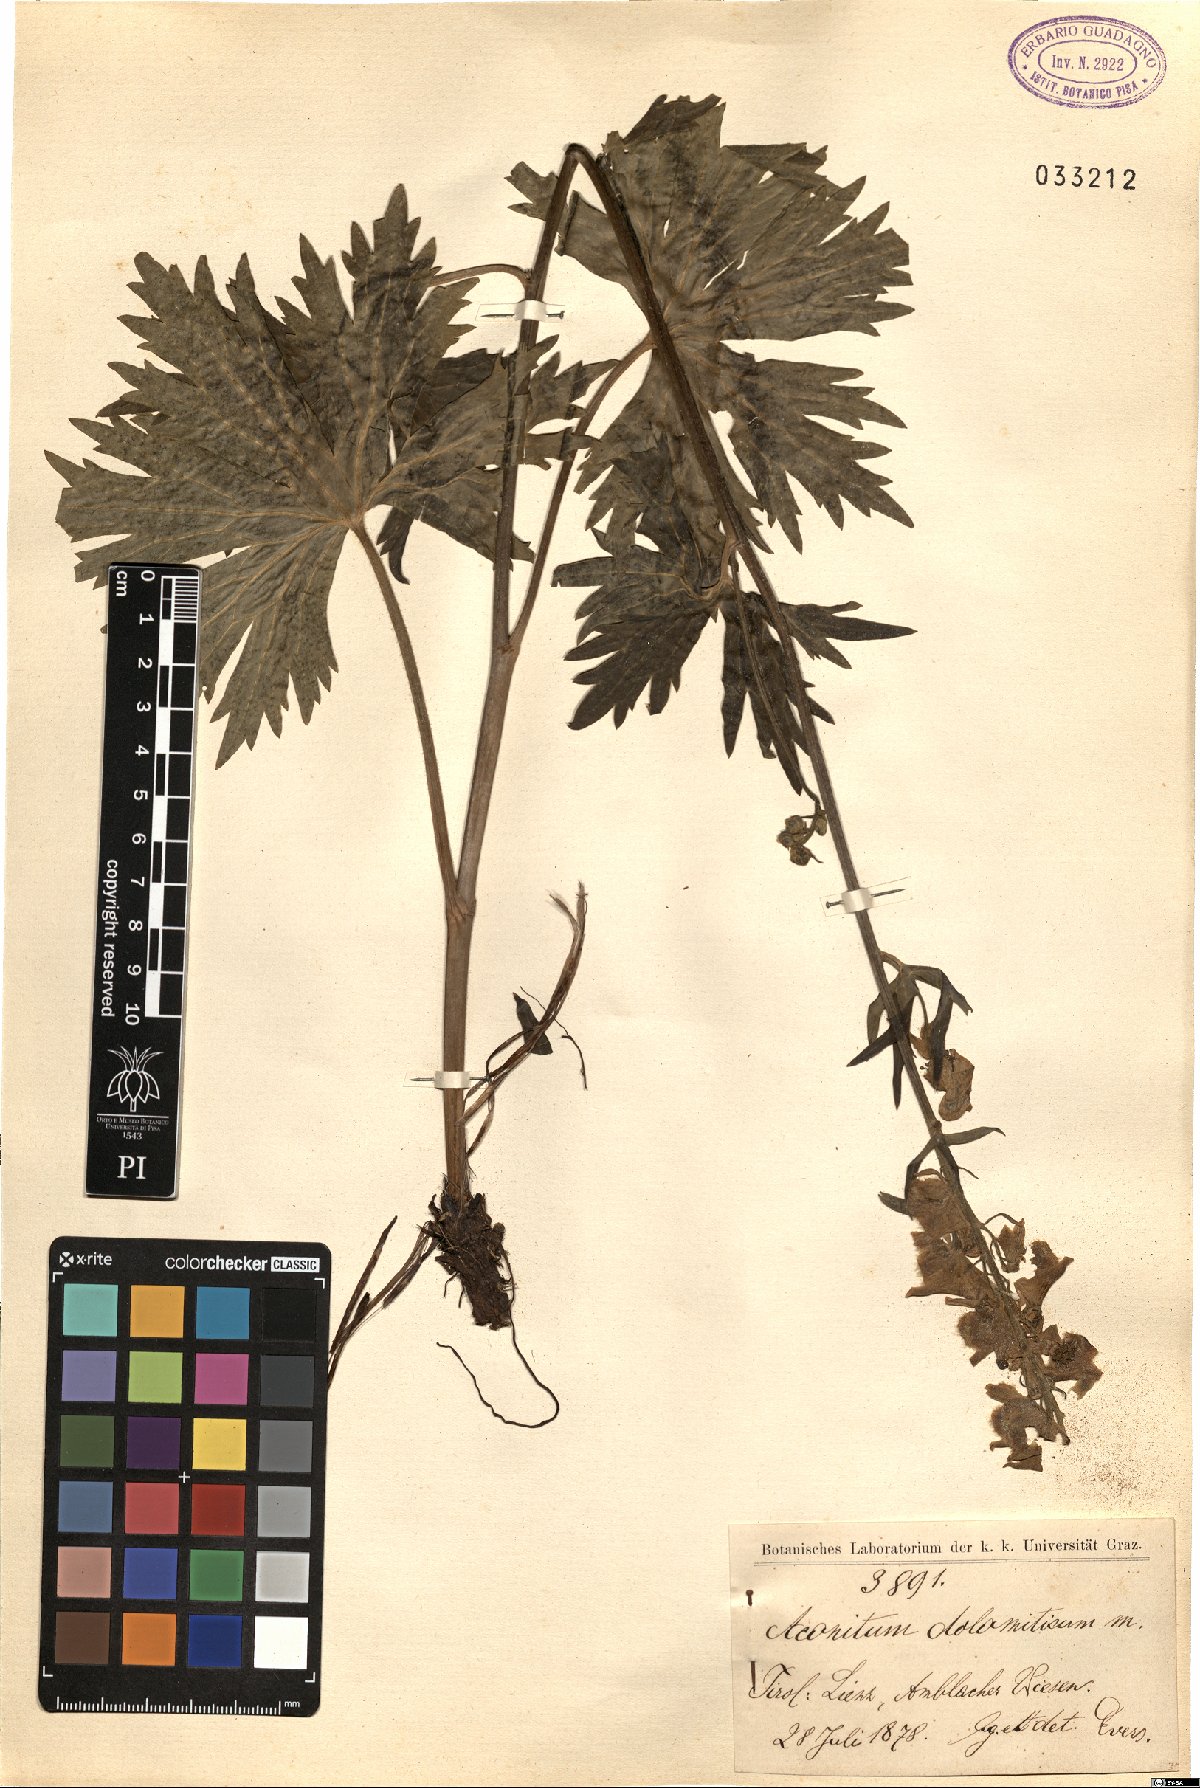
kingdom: Plantae
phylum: Tracheophyta
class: Magnoliopsida
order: Ranunculales
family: Ranunculaceae
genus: Aconitum
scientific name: Aconitum tauricum
